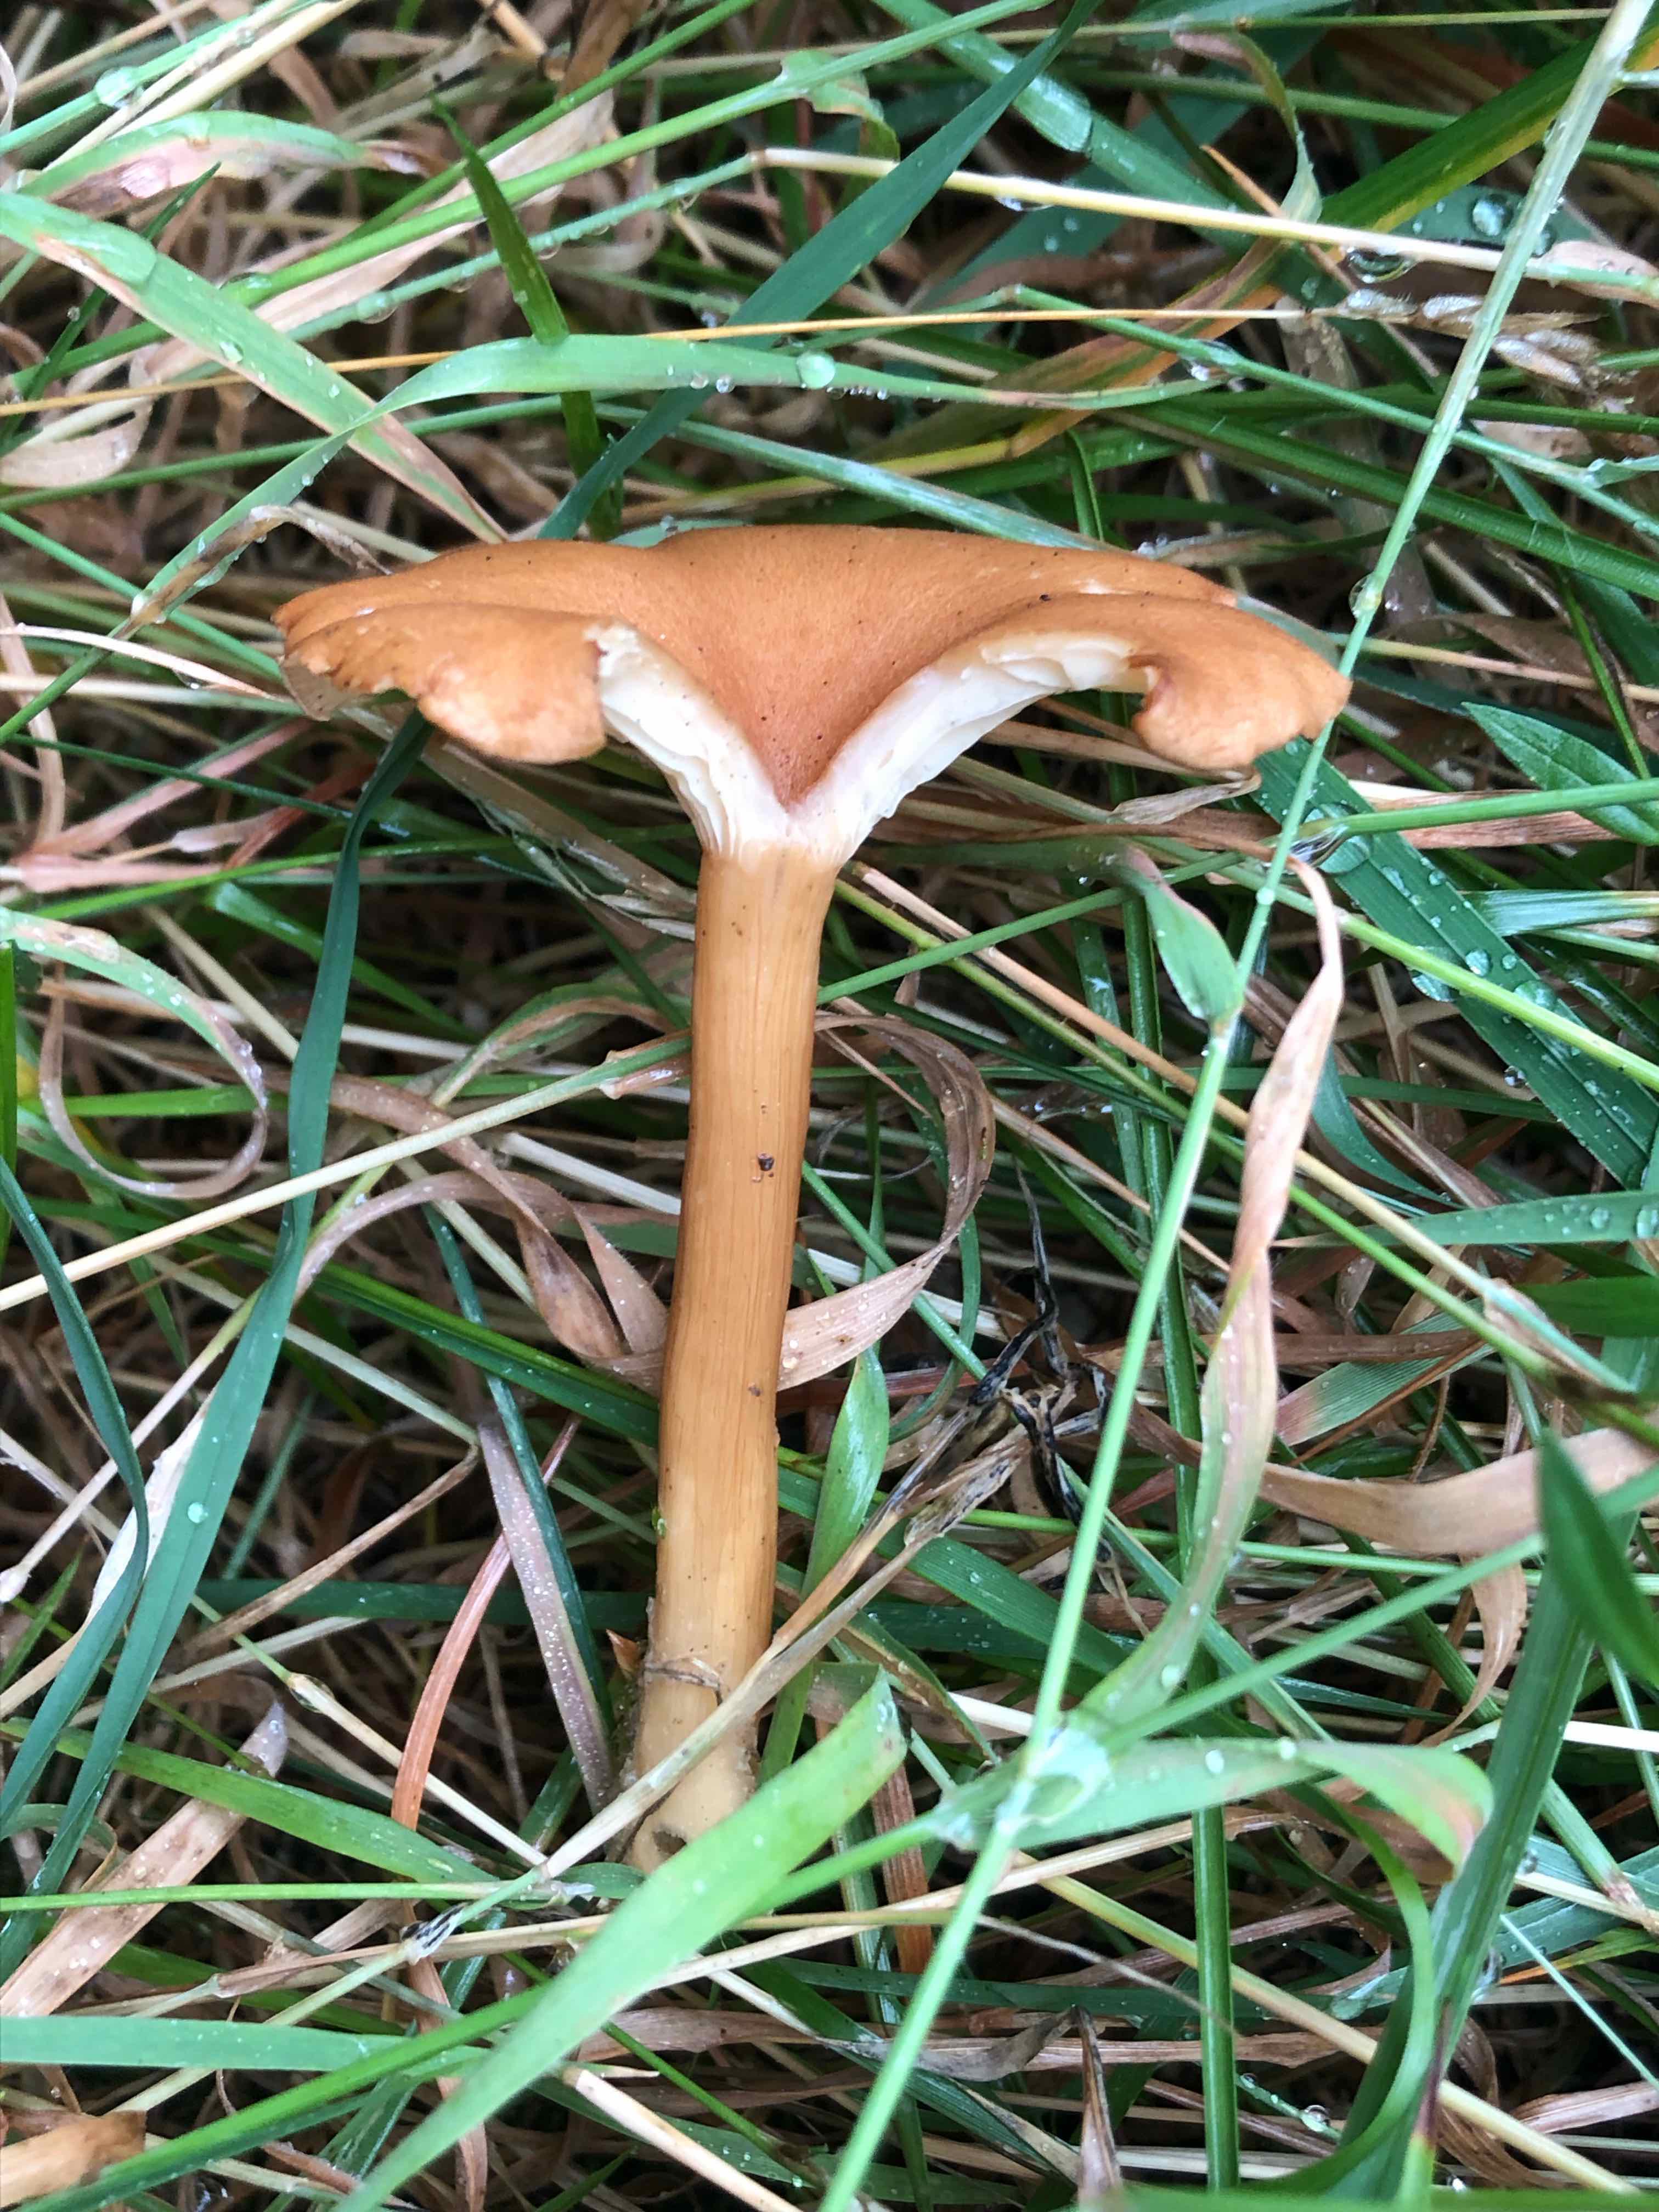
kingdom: Fungi
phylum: Basidiomycota
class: Agaricomycetes
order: Agaricales
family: Tricholomataceae
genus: Clitocybe
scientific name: Clitocybe costata
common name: brunstokket tragthat
